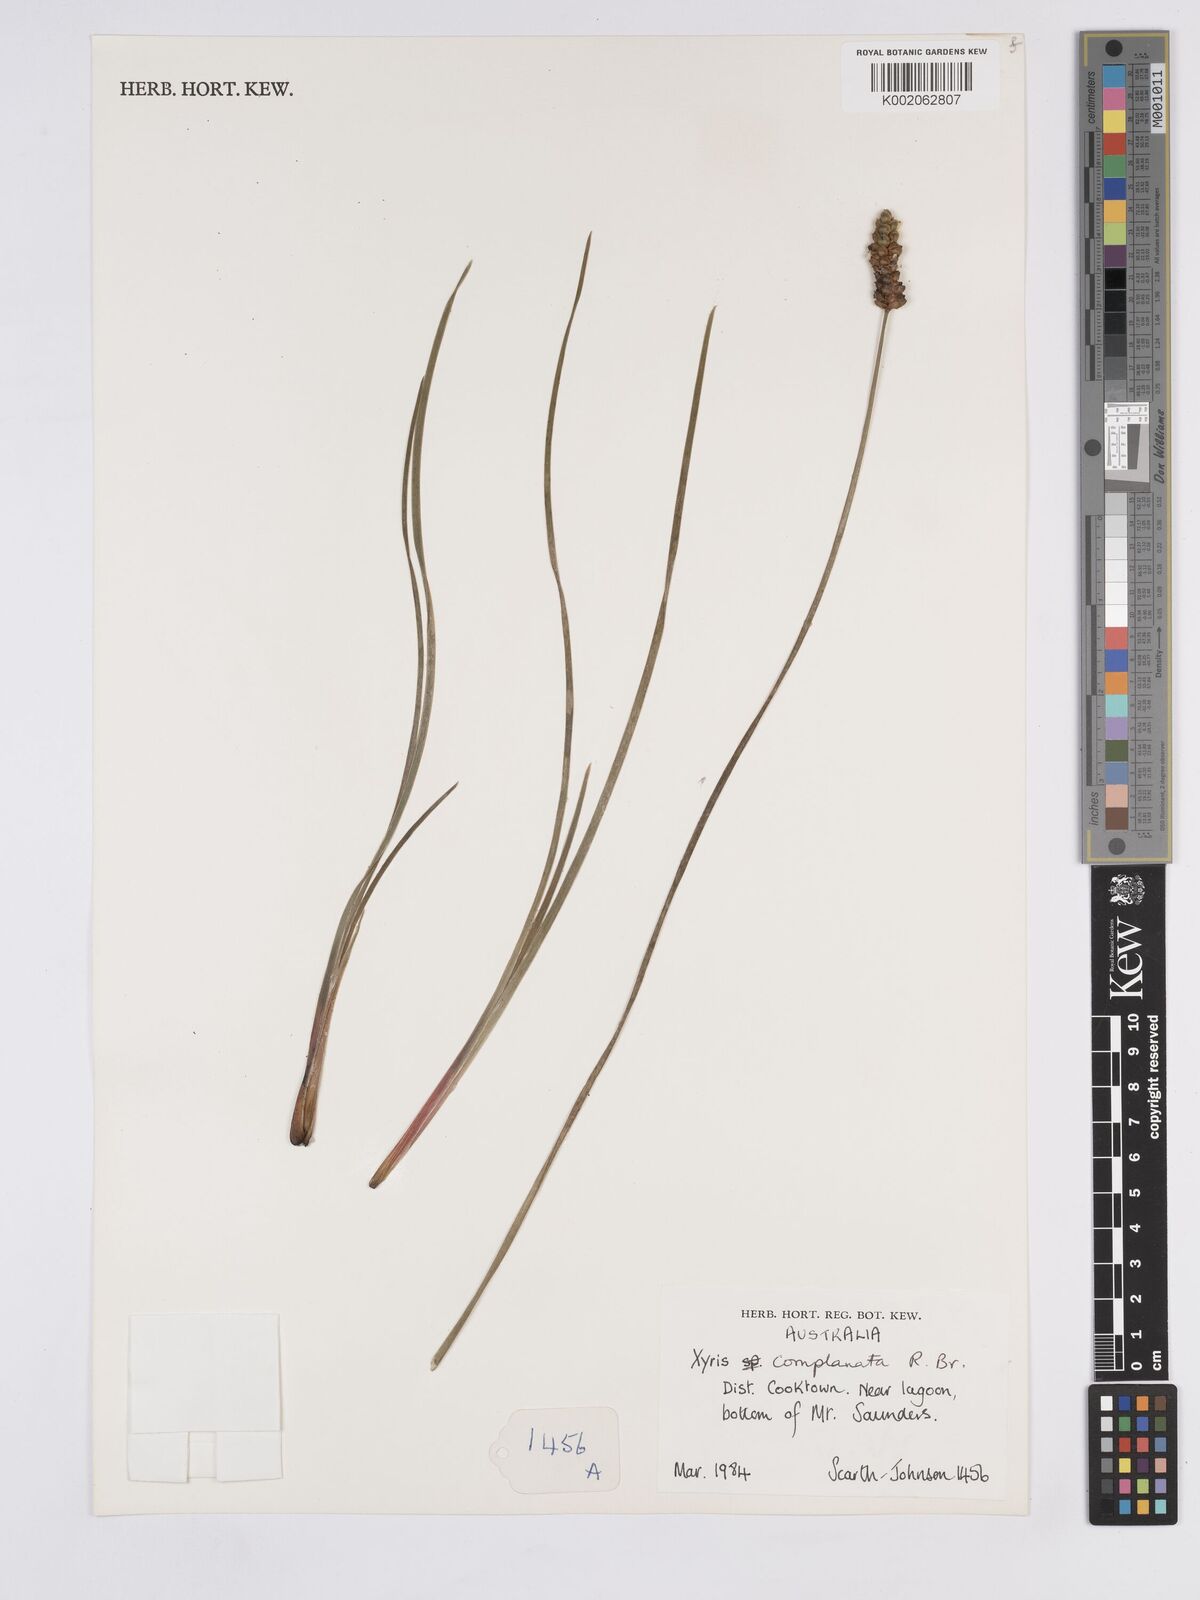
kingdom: Plantae
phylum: Tracheophyta
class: Liliopsida
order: Poales
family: Xyridaceae
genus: Xyris
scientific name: Xyris complanata
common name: Hawai'i yelloweyed grass
